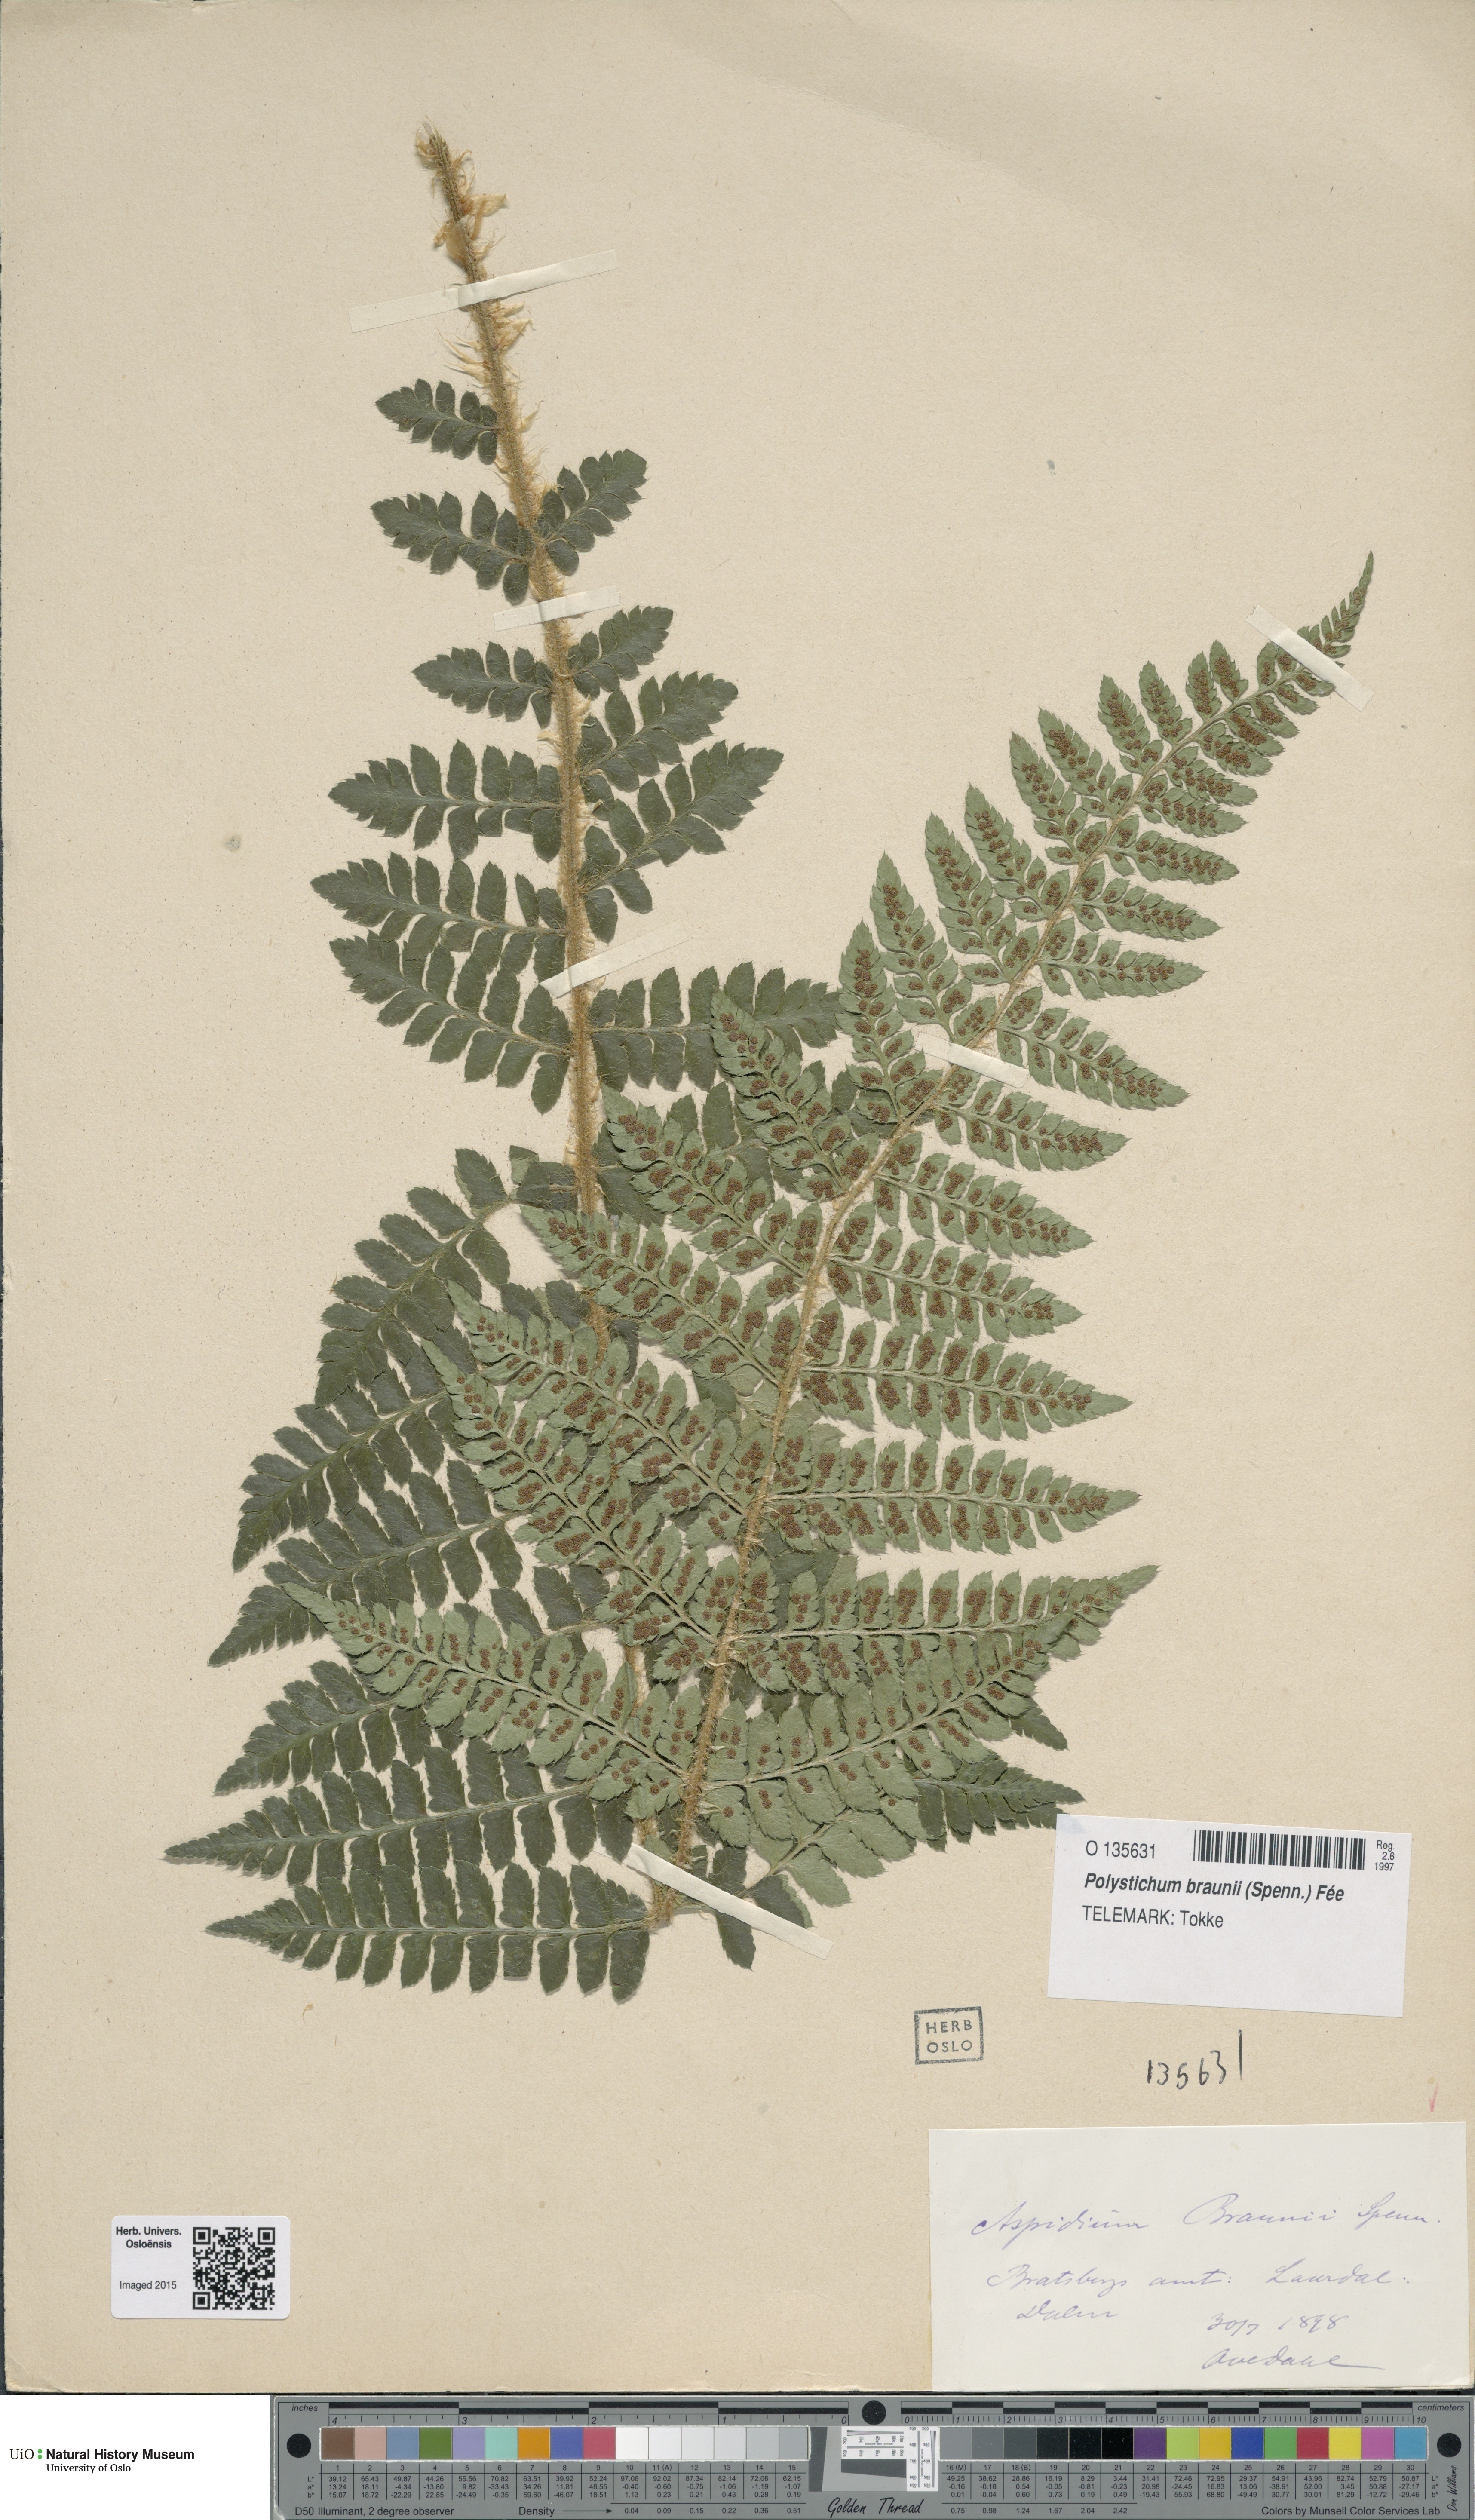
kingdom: Plantae
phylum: Tracheophyta
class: Polypodiopsida
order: Polypodiales
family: Dryopteridaceae
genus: Polystichum
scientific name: Polystichum braunii
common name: Braun's holly fern
